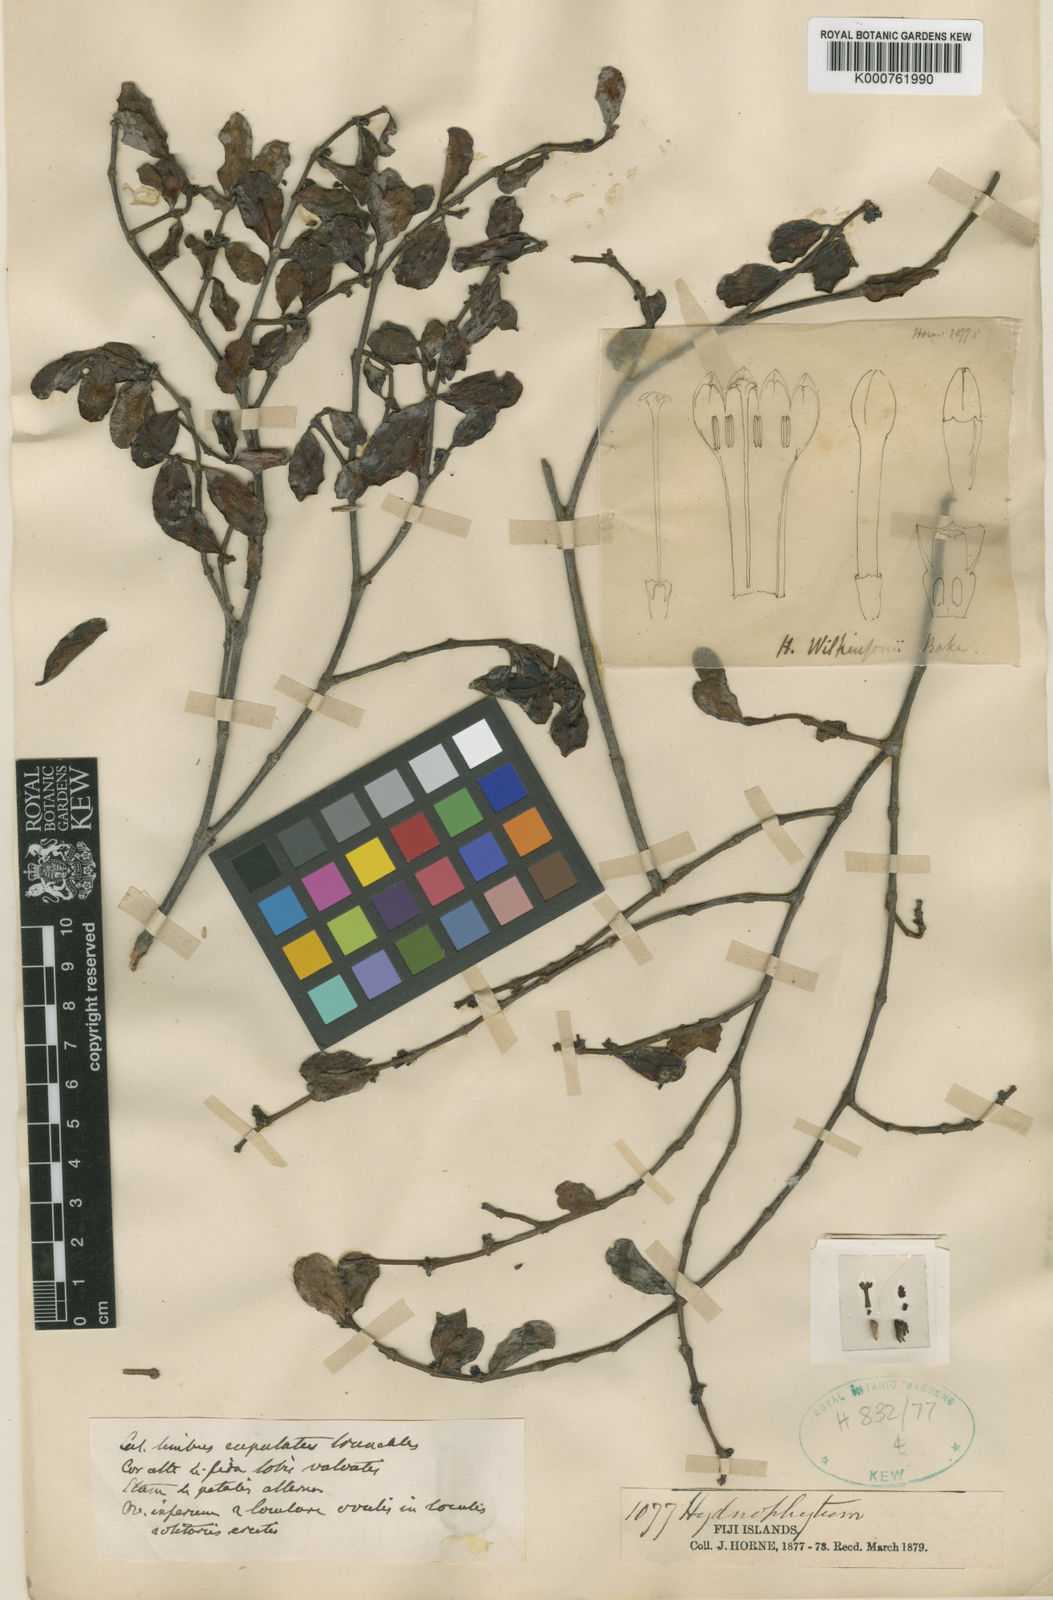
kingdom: Plantae
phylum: Tracheophyta
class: Magnoliopsida
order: Gentianales
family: Rubiaceae
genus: Hydnophytum
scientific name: Hydnophytum longiflorum
